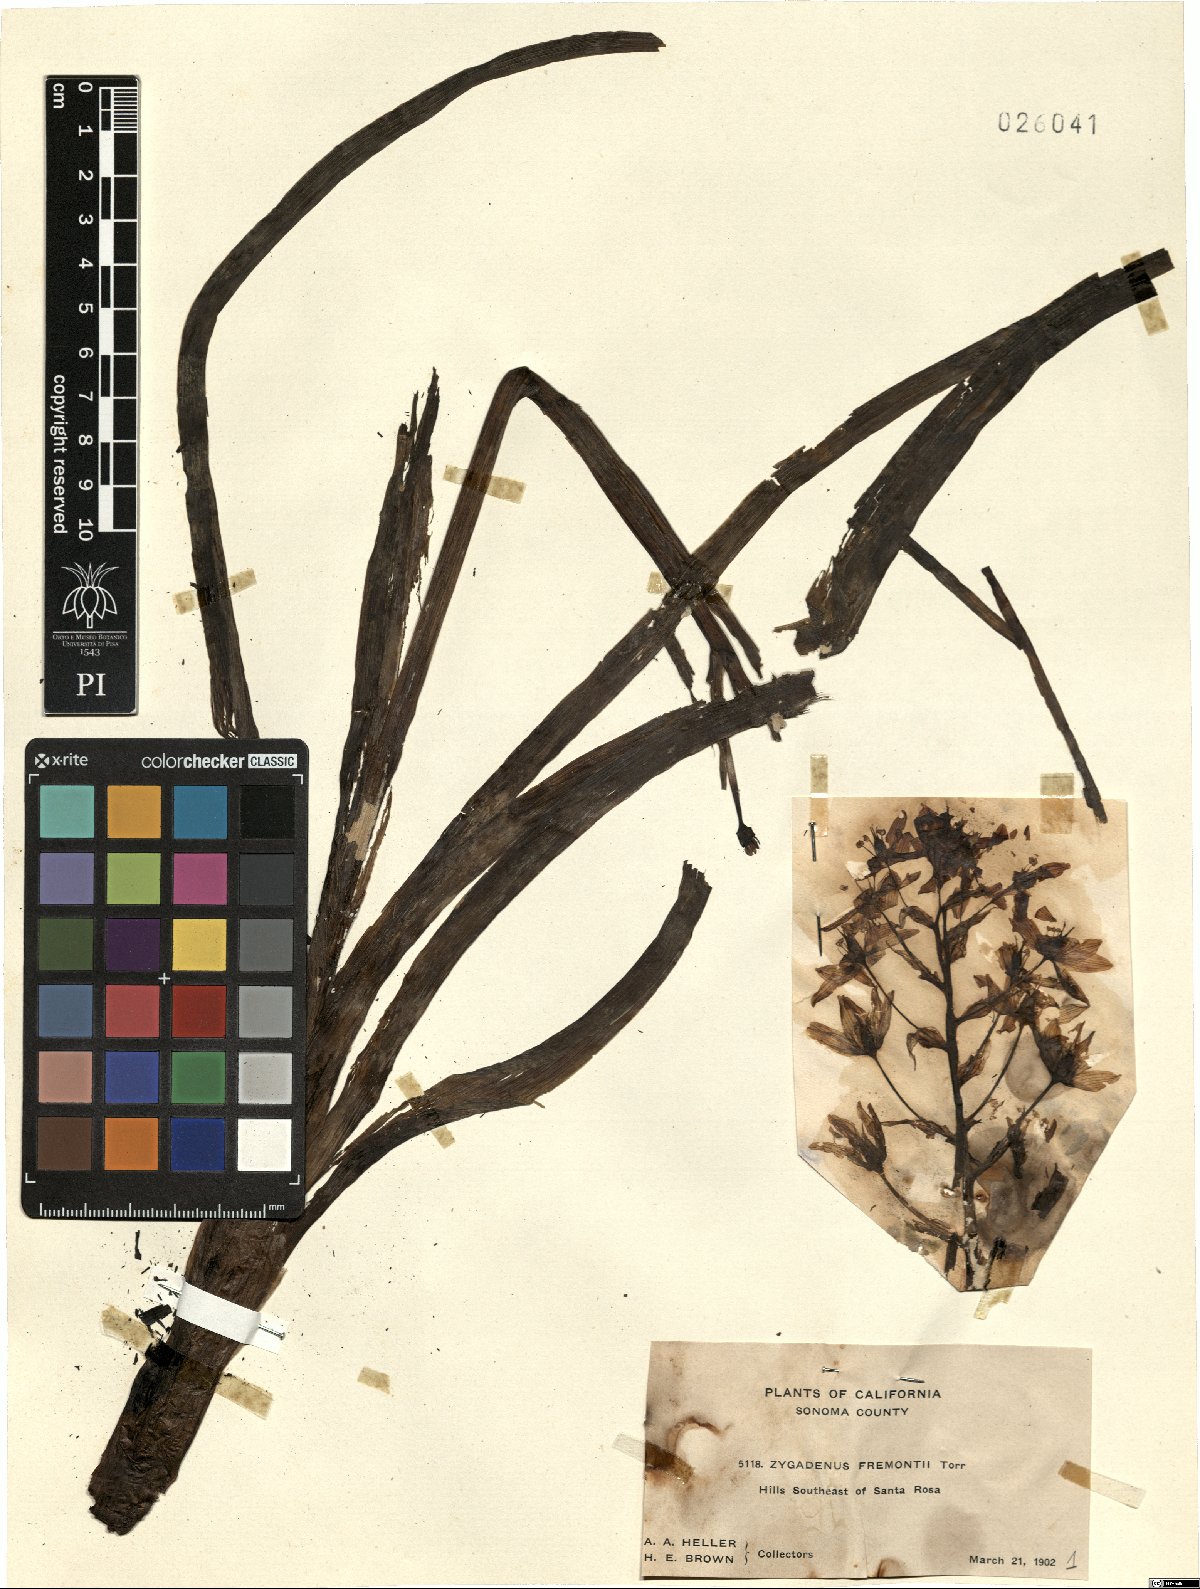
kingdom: Plantae
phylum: Tracheophyta
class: Liliopsida
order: Liliales
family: Melanthiaceae
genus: Toxicoscordion
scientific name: Toxicoscordion fremontii
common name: Fremont's death camas
